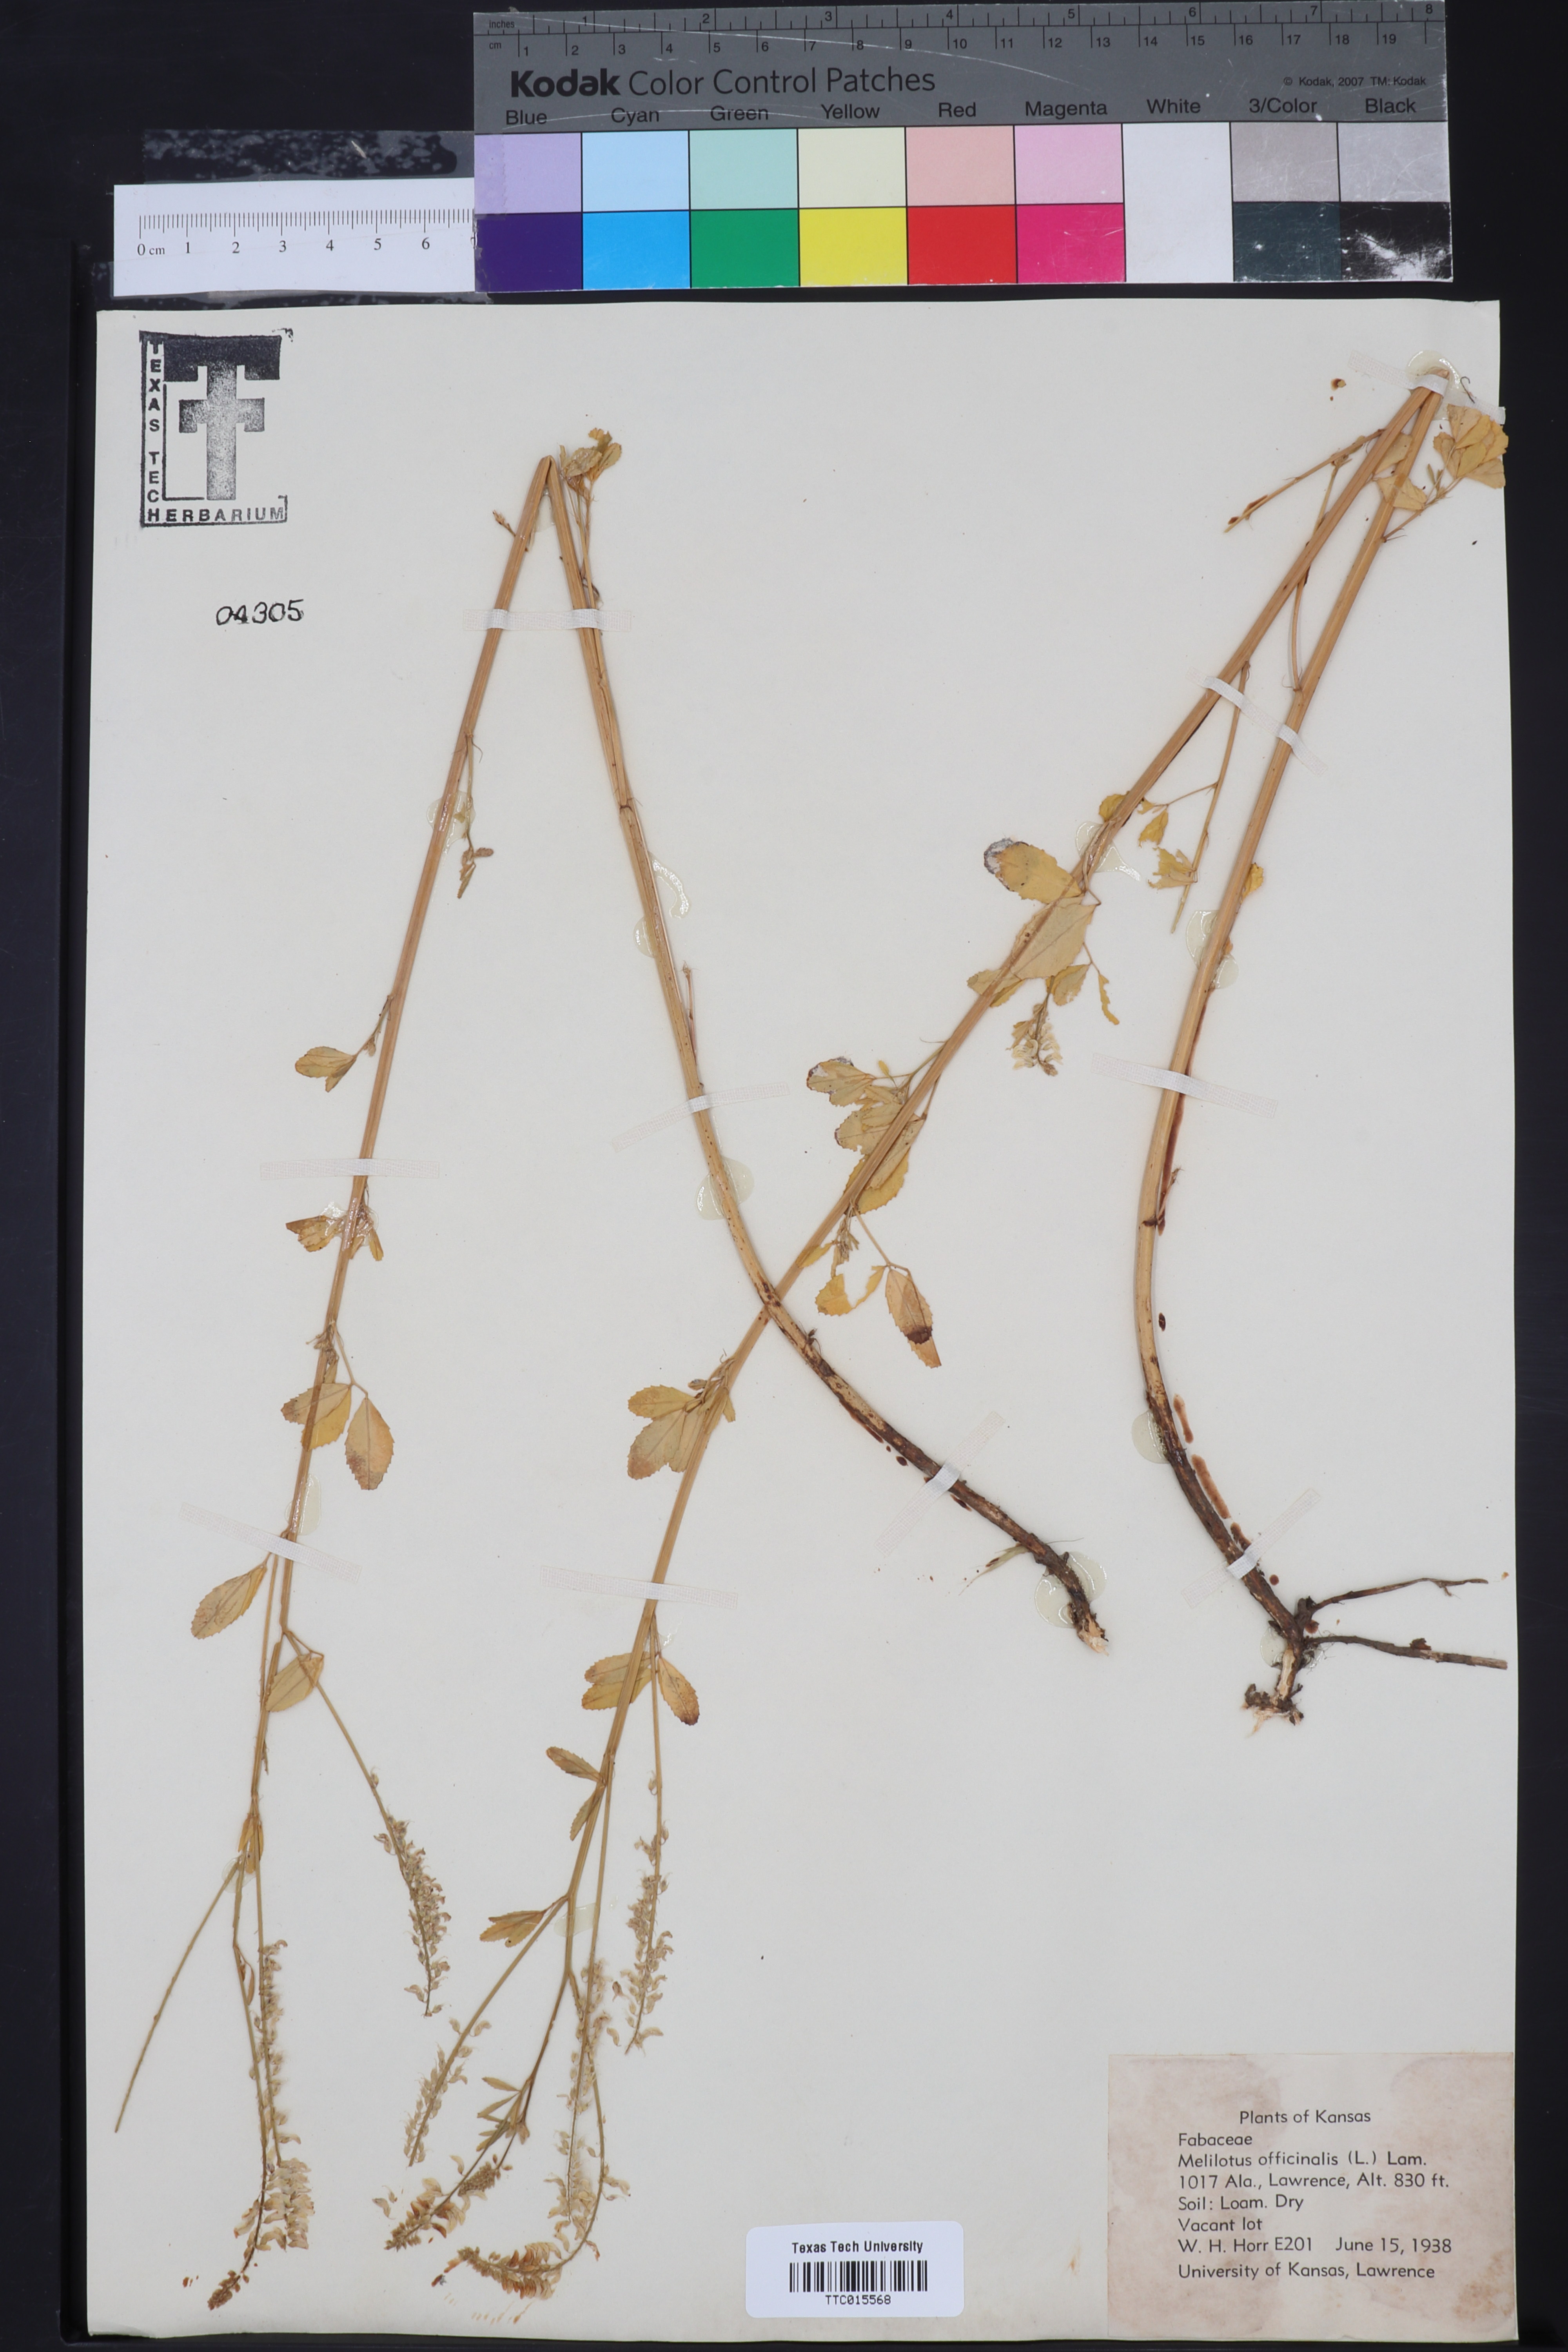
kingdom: Plantae
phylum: Tracheophyta
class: Magnoliopsida
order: Fabales
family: Fabaceae
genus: Melilotus
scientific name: Melilotus officinalis
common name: Sweetclover
